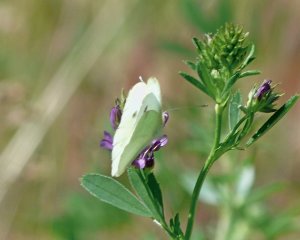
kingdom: Animalia
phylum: Arthropoda
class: Insecta
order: Lepidoptera
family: Pieridae
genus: Pieris
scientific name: Pieris rapae
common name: Cabbage White
